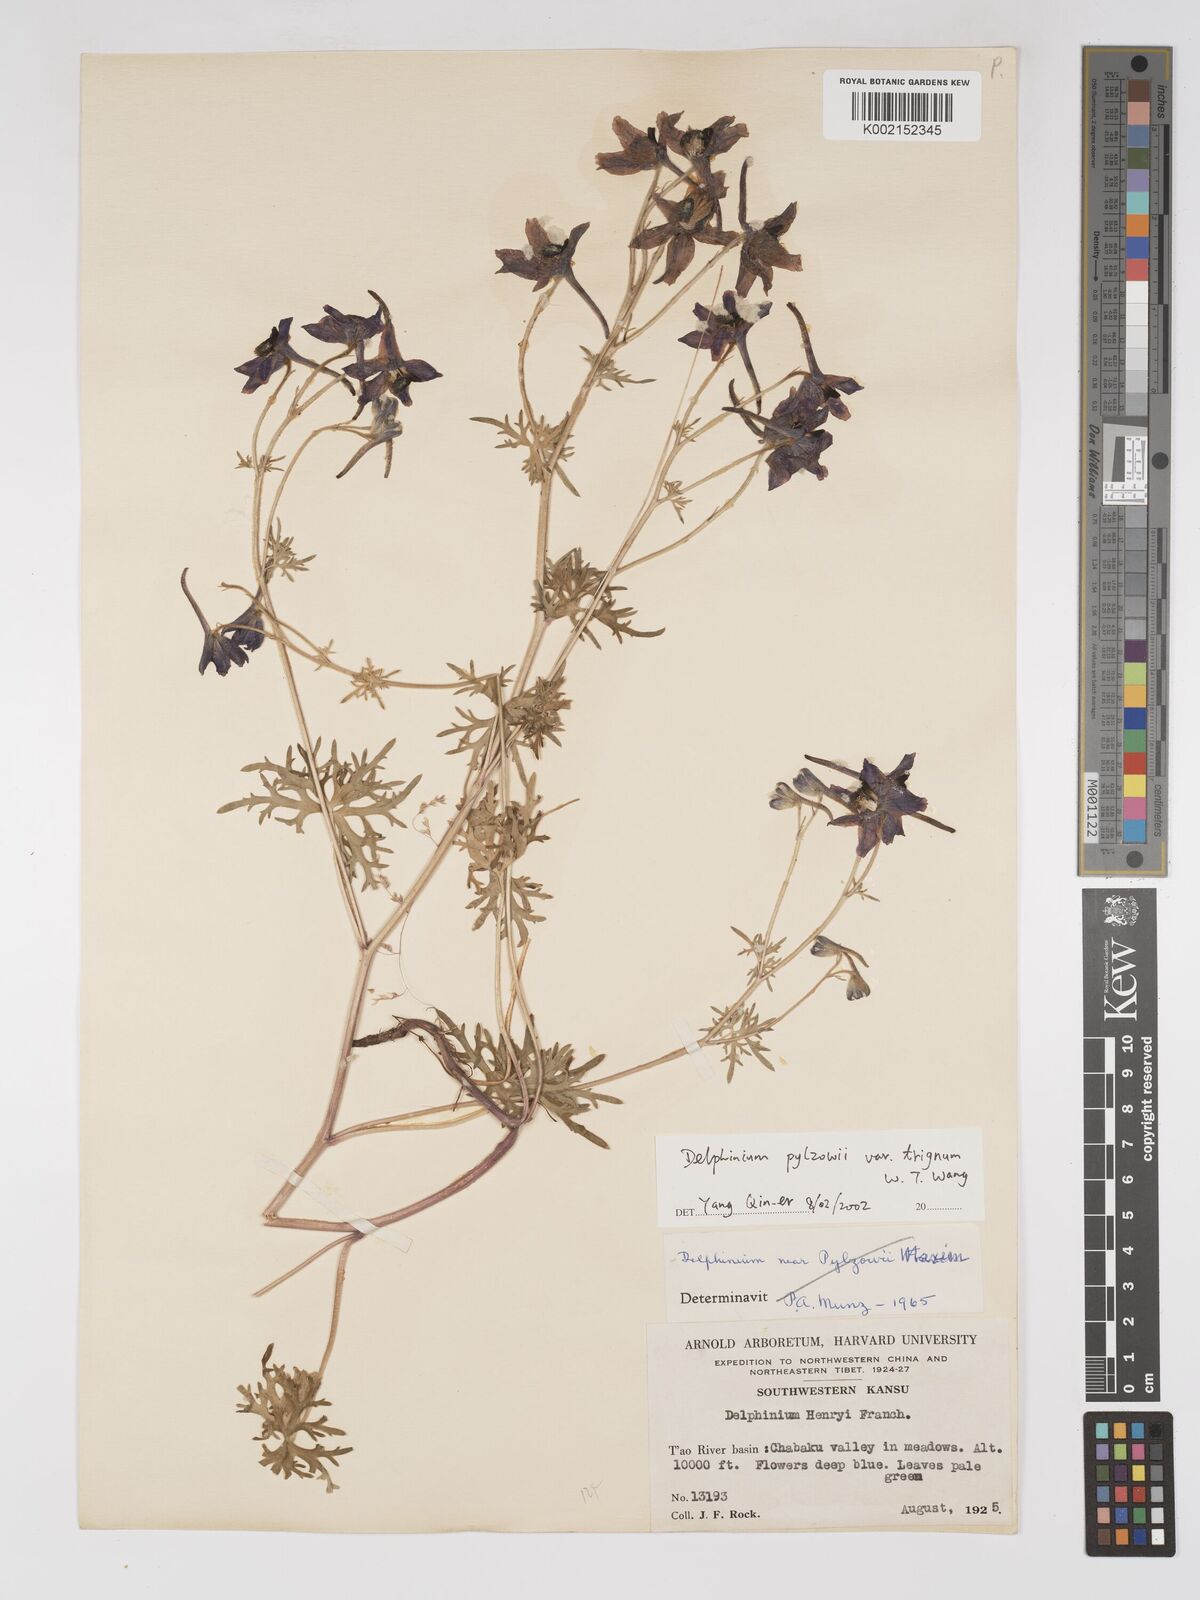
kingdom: Plantae
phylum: Tracheophyta
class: Magnoliopsida
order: Ranunculales
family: Ranunculaceae
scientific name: Ranunculaceae
